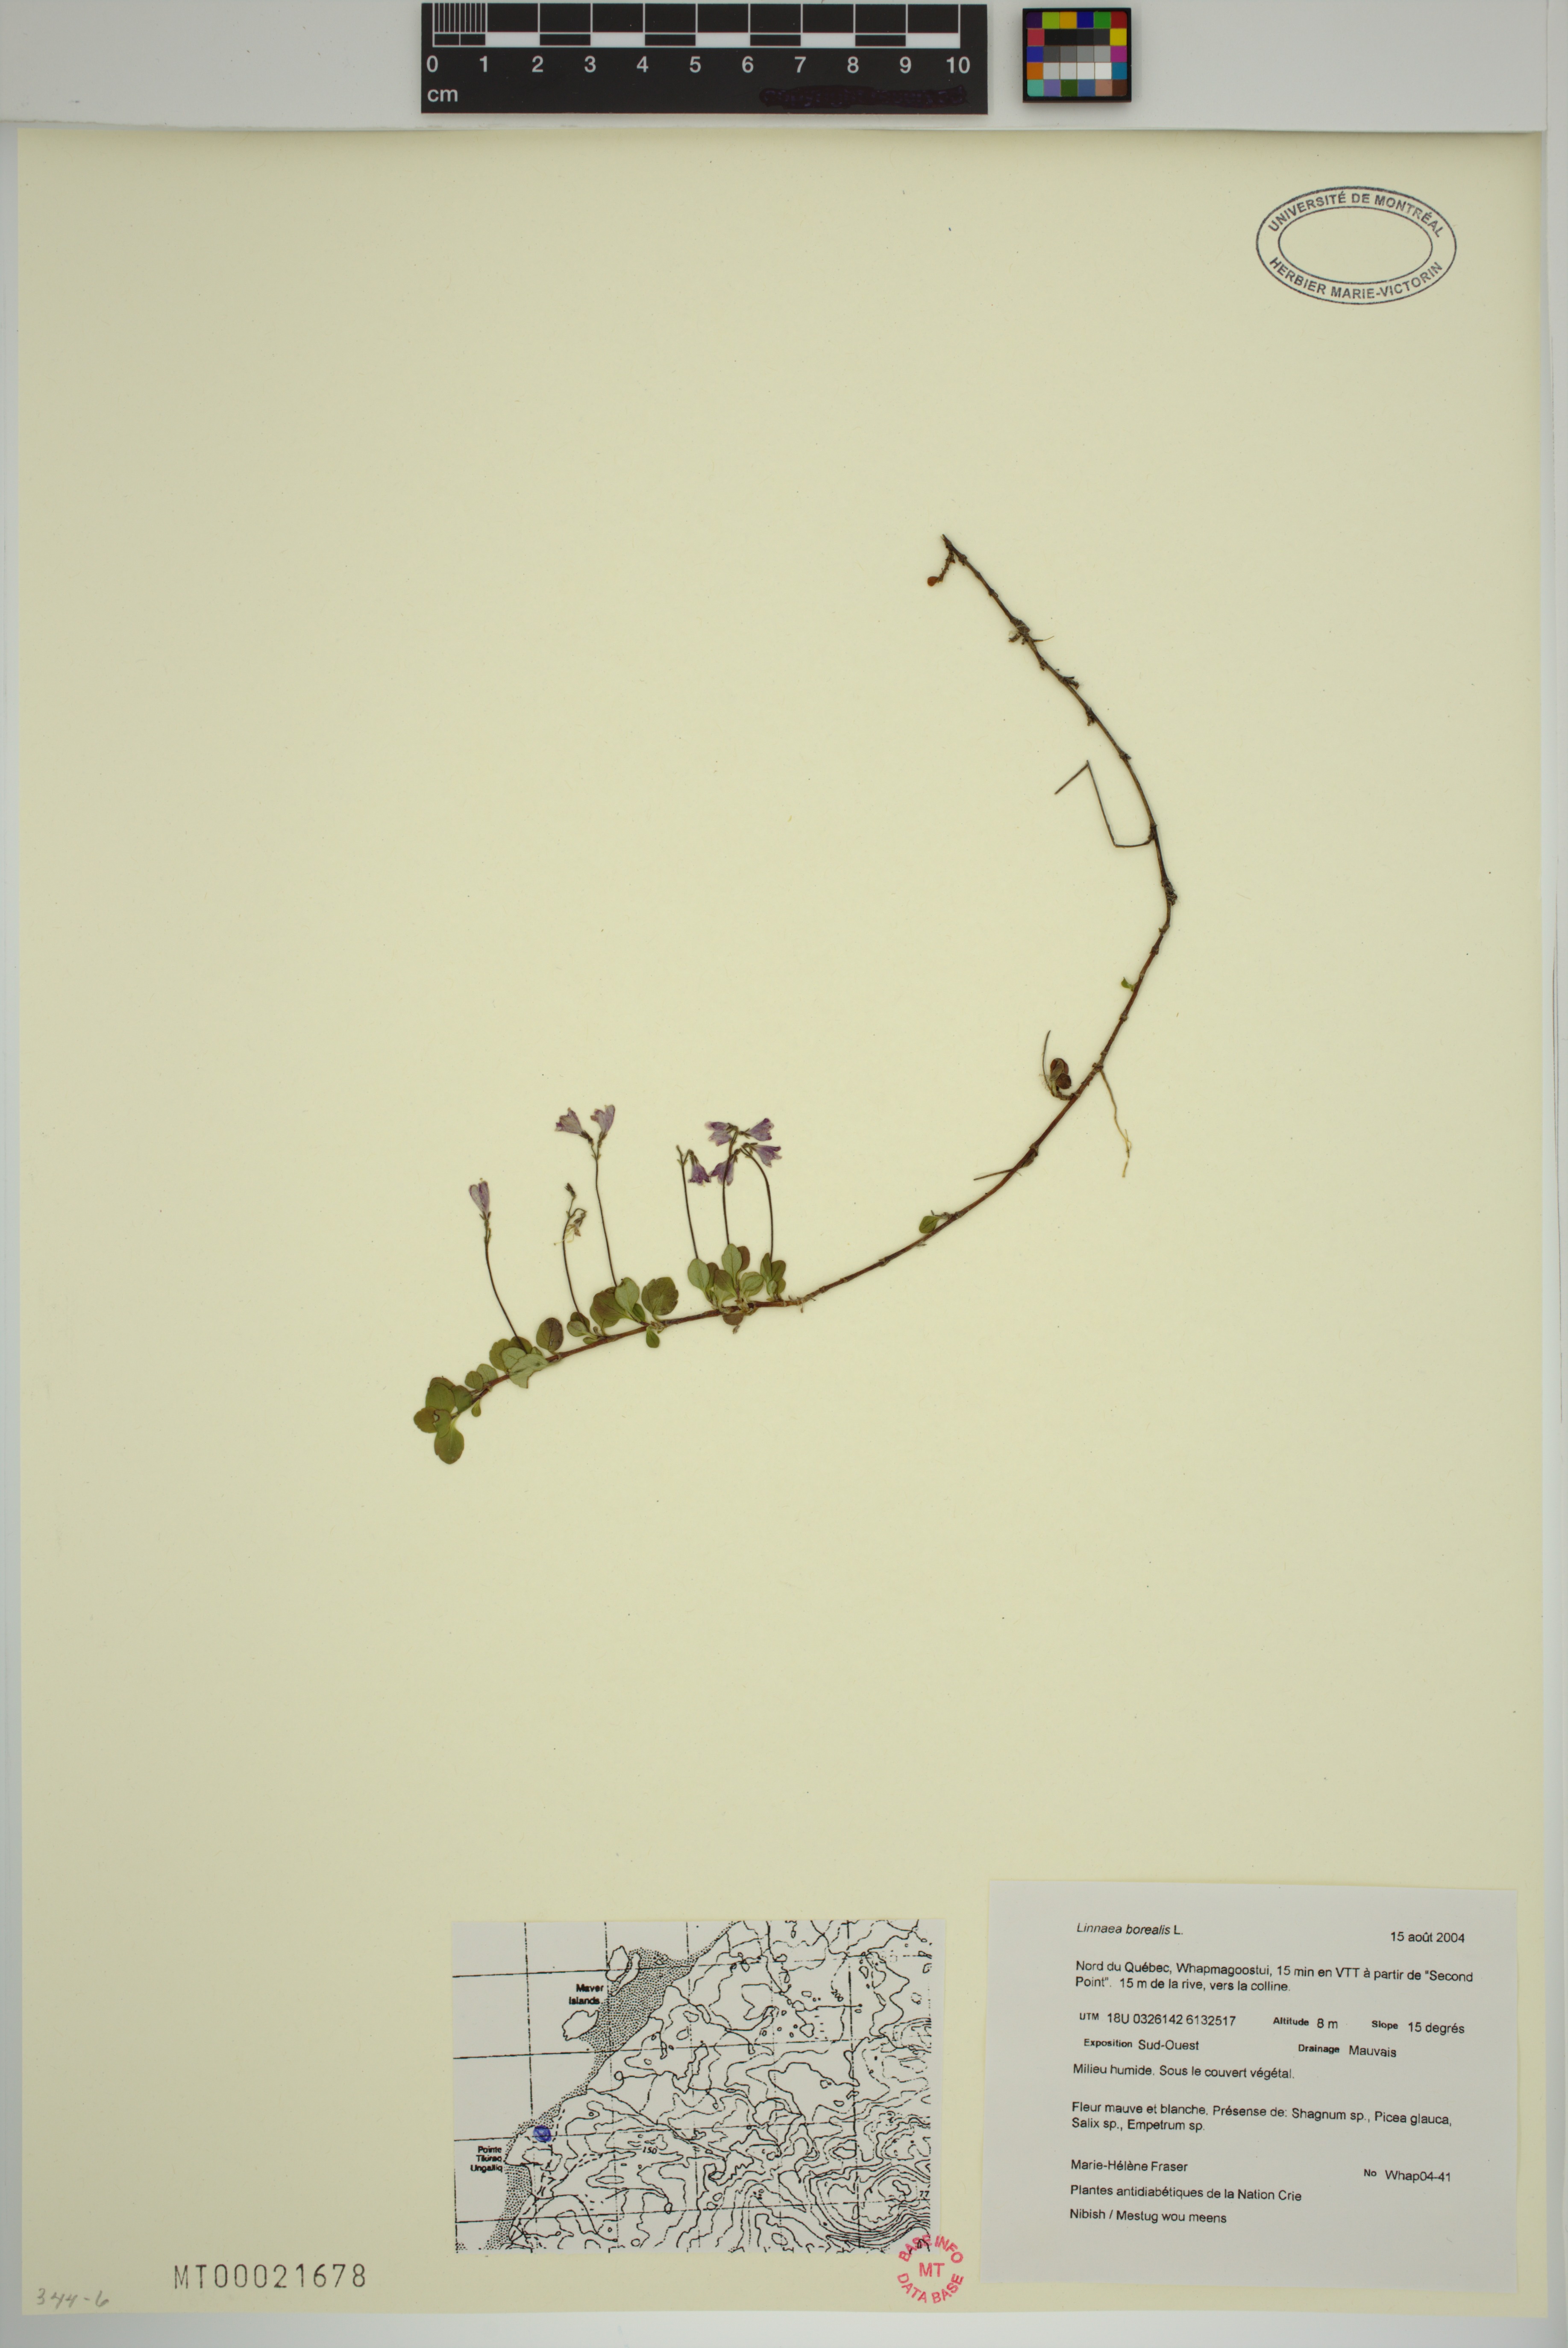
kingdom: Plantae
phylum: Tracheophyta
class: Magnoliopsida
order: Dipsacales
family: Caprifoliaceae
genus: Linnaea
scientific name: Linnaea borealis
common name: Twinflower
